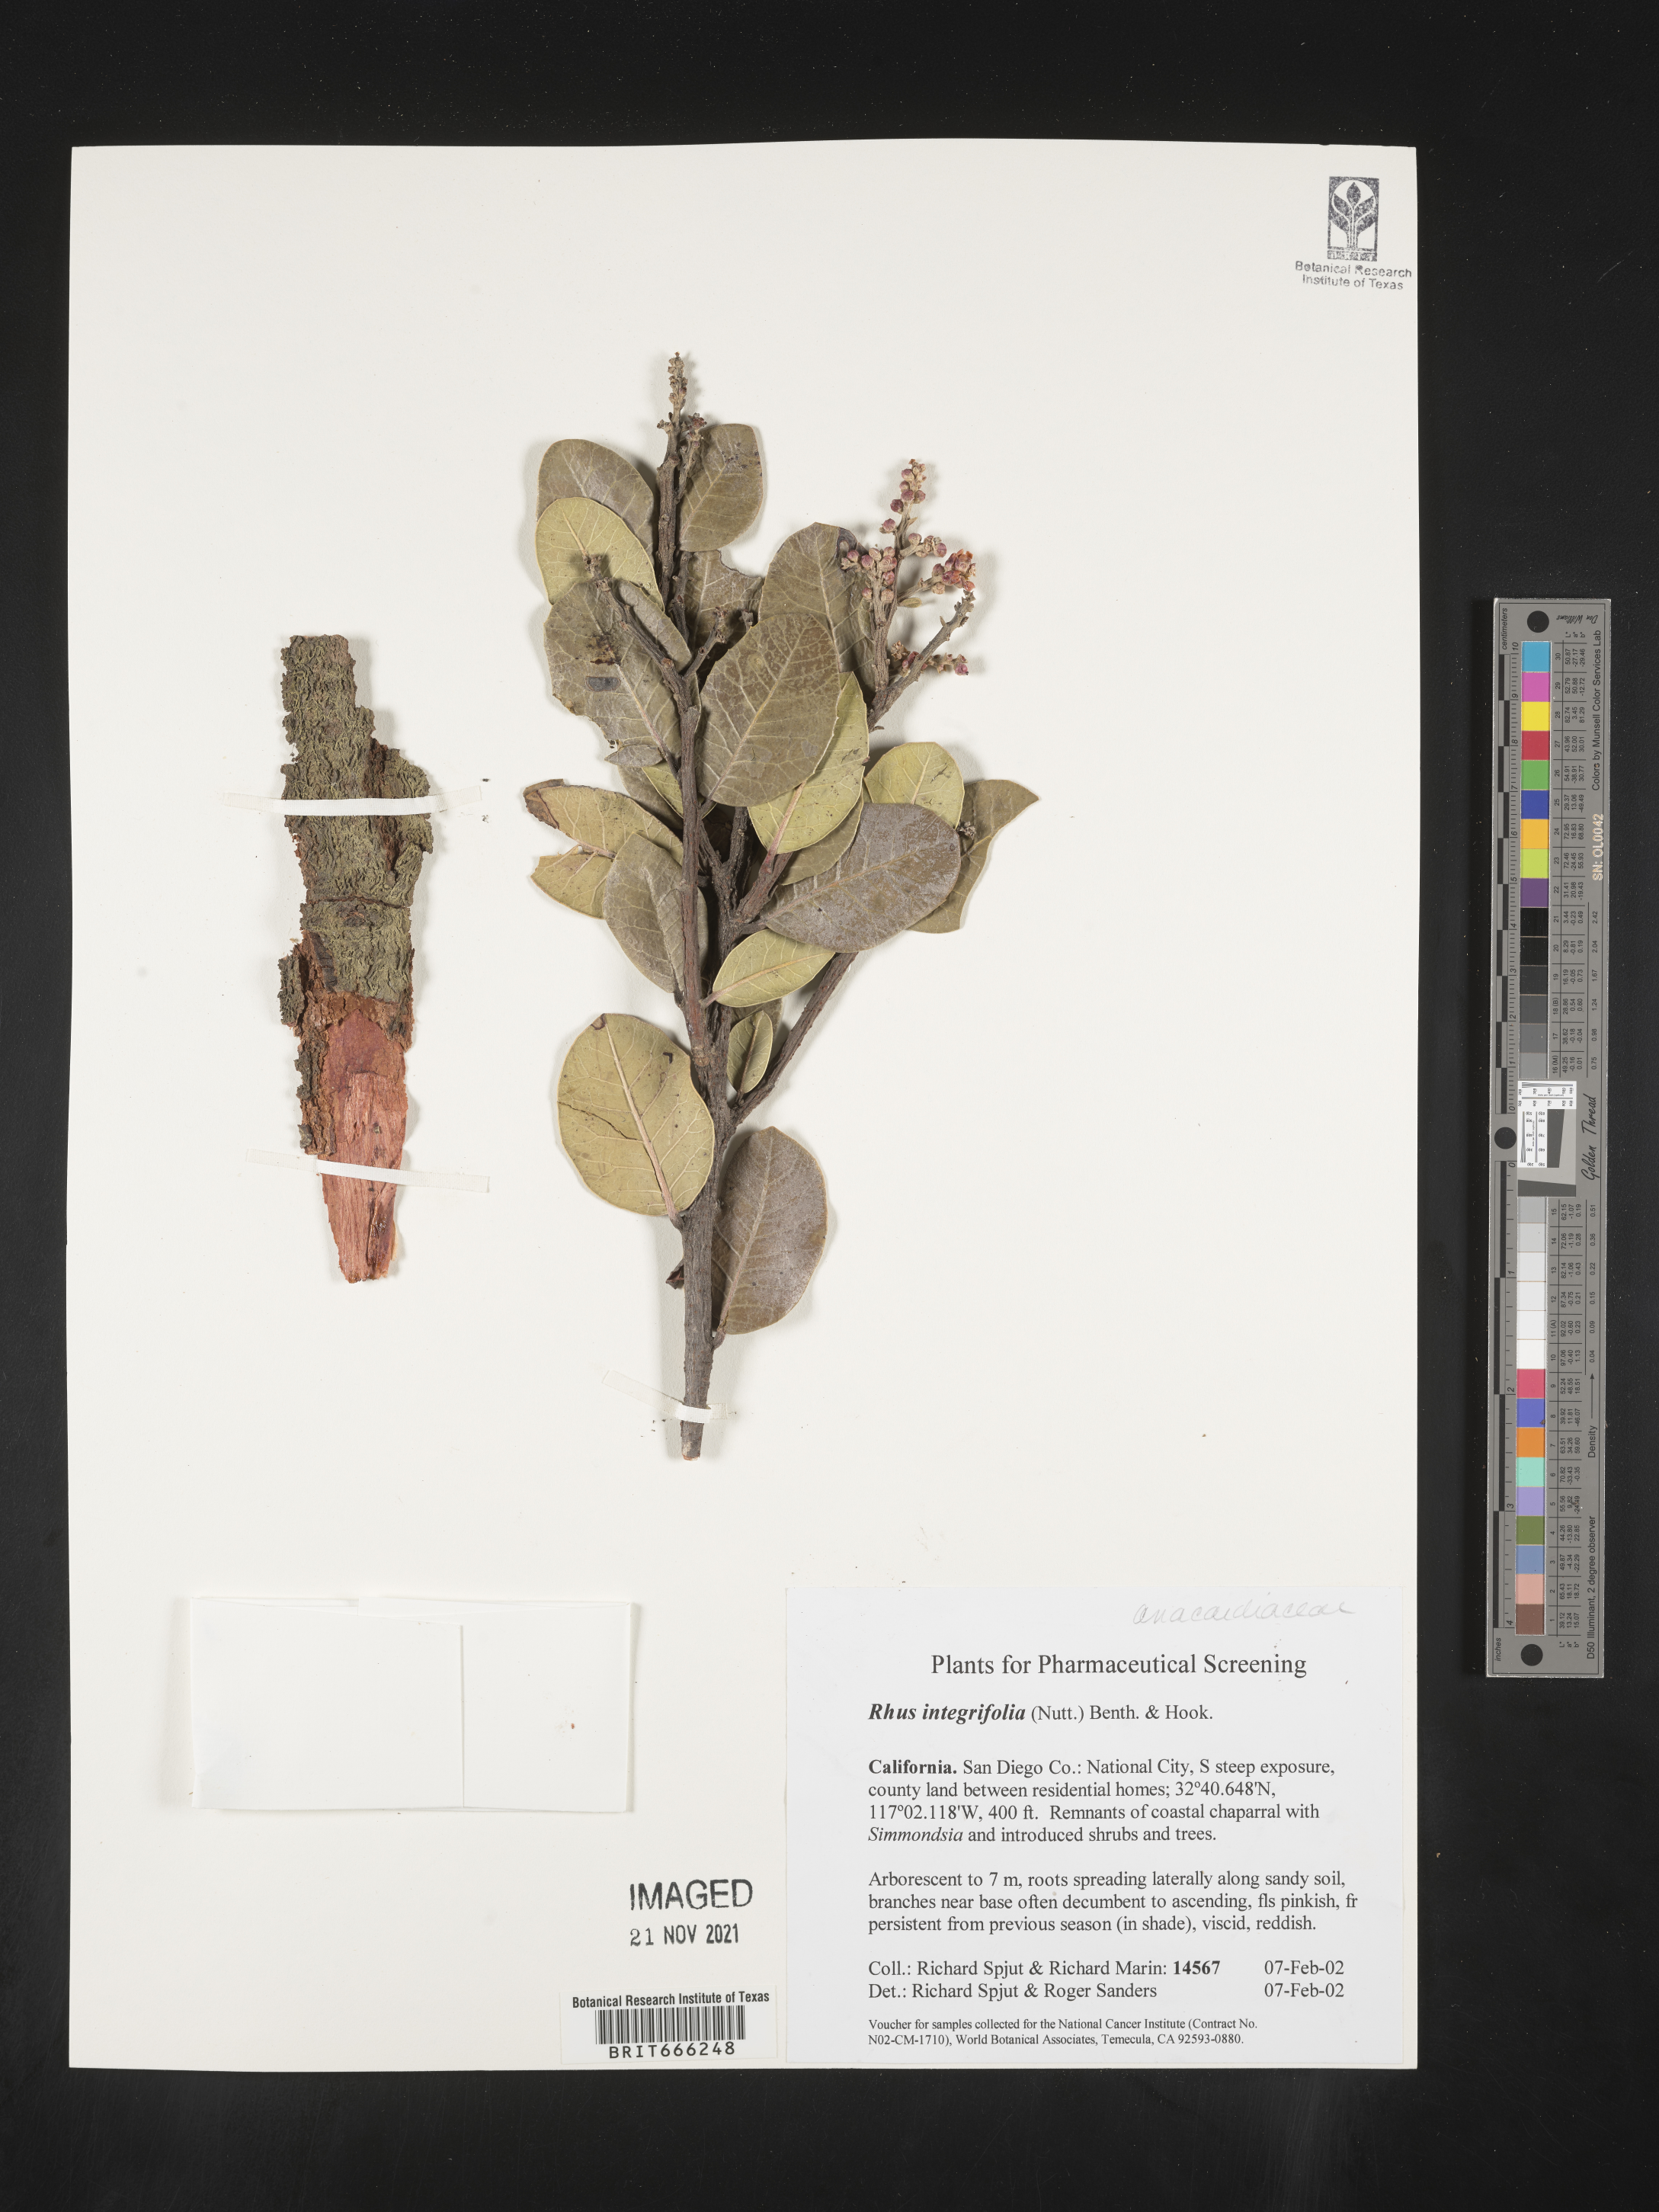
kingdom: Plantae
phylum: Tracheophyta
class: Magnoliopsida
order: Sapindales
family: Anacardiaceae
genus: Rhus
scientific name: Rhus
